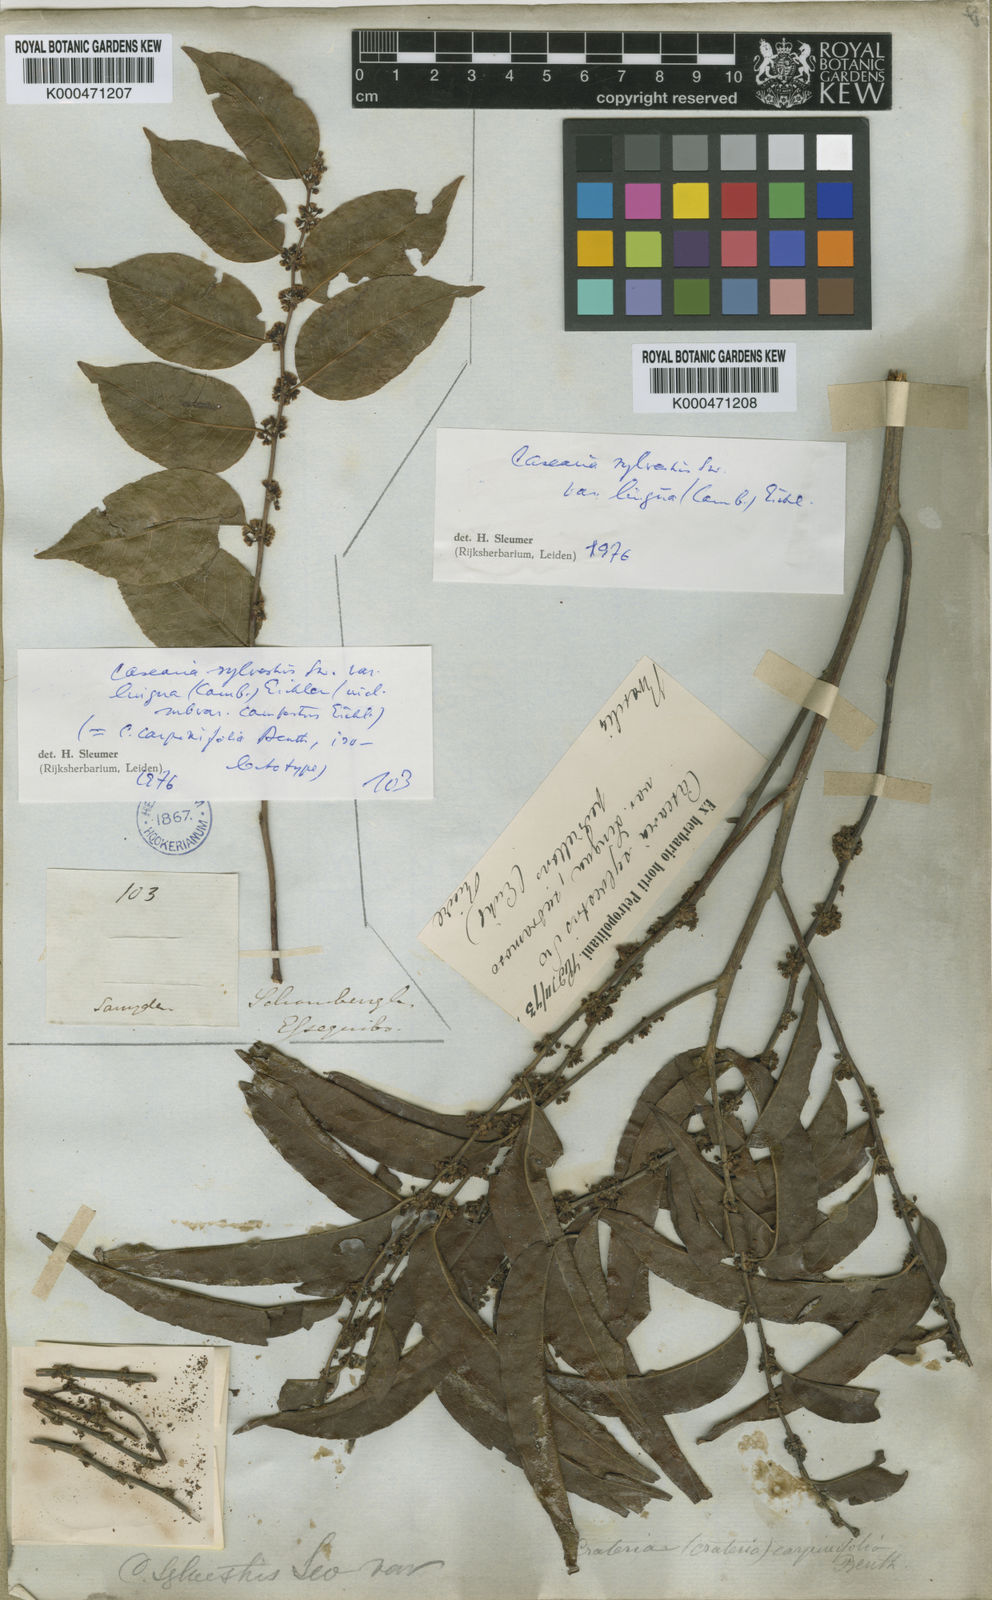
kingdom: Plantae
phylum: Tracheophyta
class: Magnoliopsida
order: Malpighiales
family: Salicaceae
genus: Casearia
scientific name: Casearia sylvestris
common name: Wild sage
